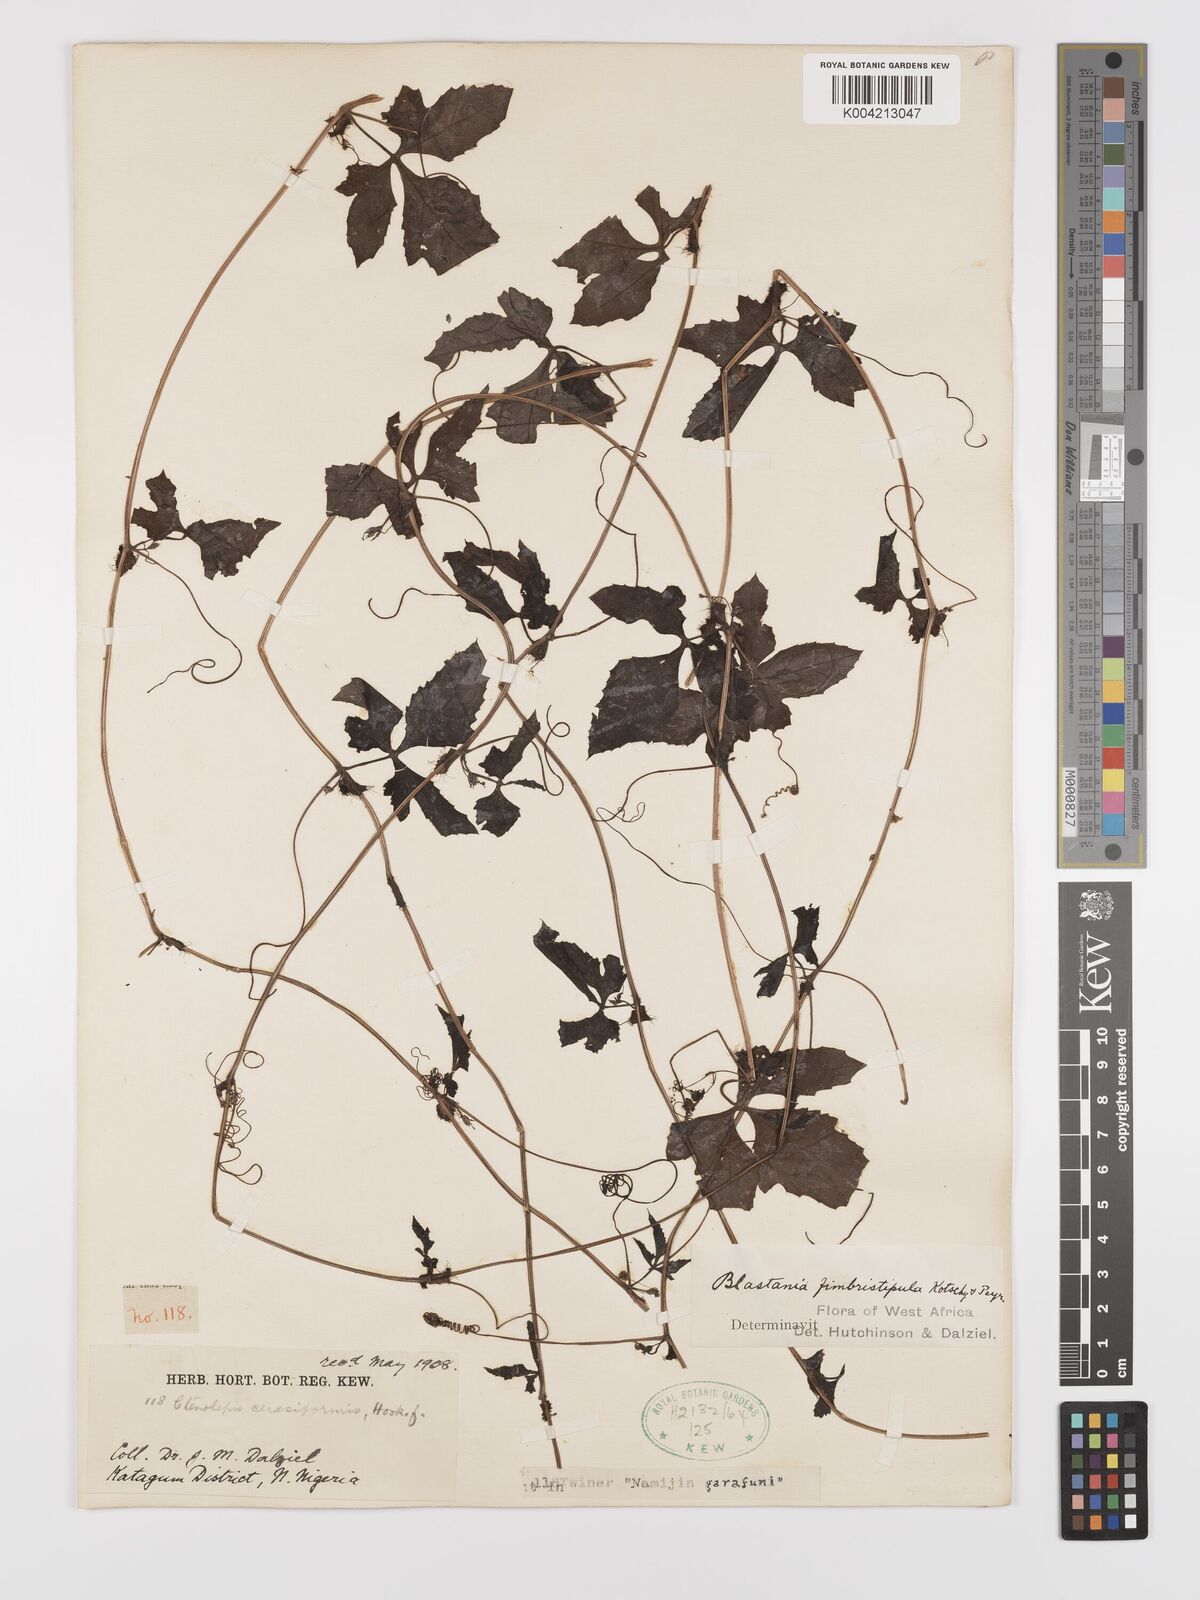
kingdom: Plantae
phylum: Tracheophyta
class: Magnoliopsida
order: Cucurbitales
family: Cucurbitaceae
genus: Blastania
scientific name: Blastania cerasiformis
